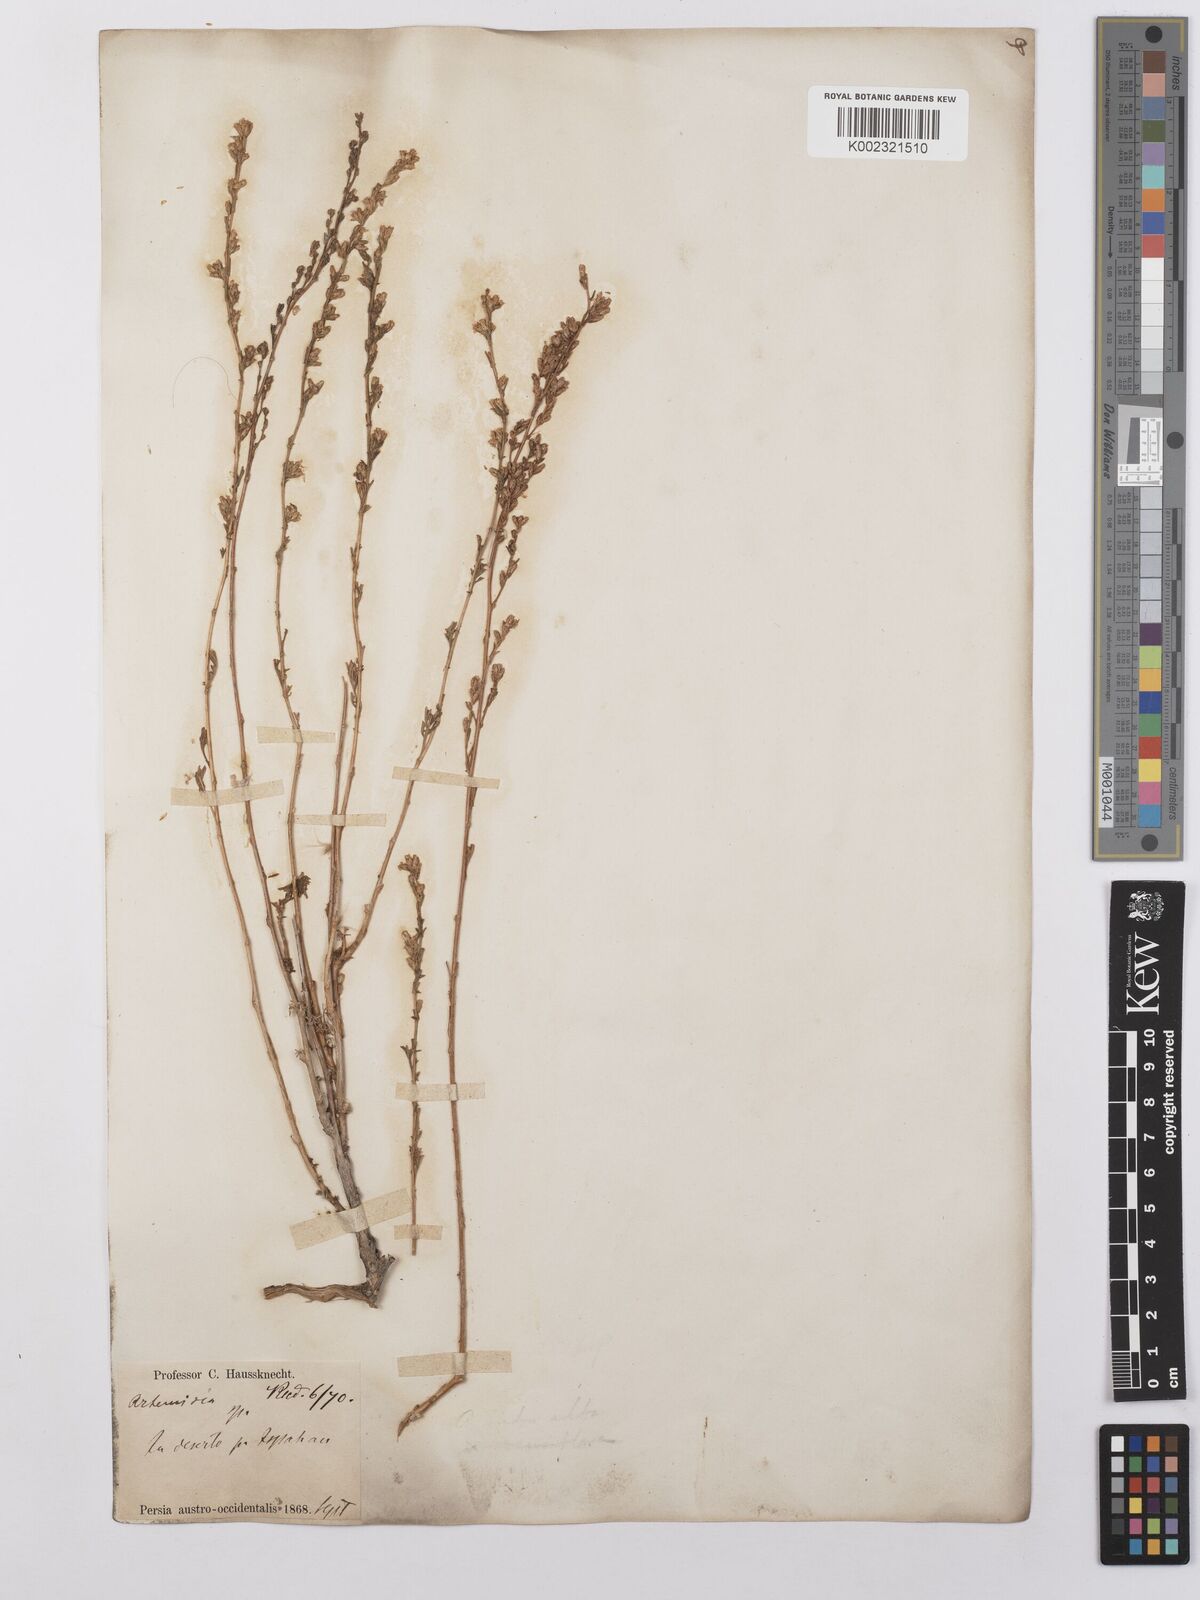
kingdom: Plantae
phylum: Tracheophyta
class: Magnoliopsida
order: Asterales
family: Asteraceae
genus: Artemisia
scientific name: Artemisia aucheri
